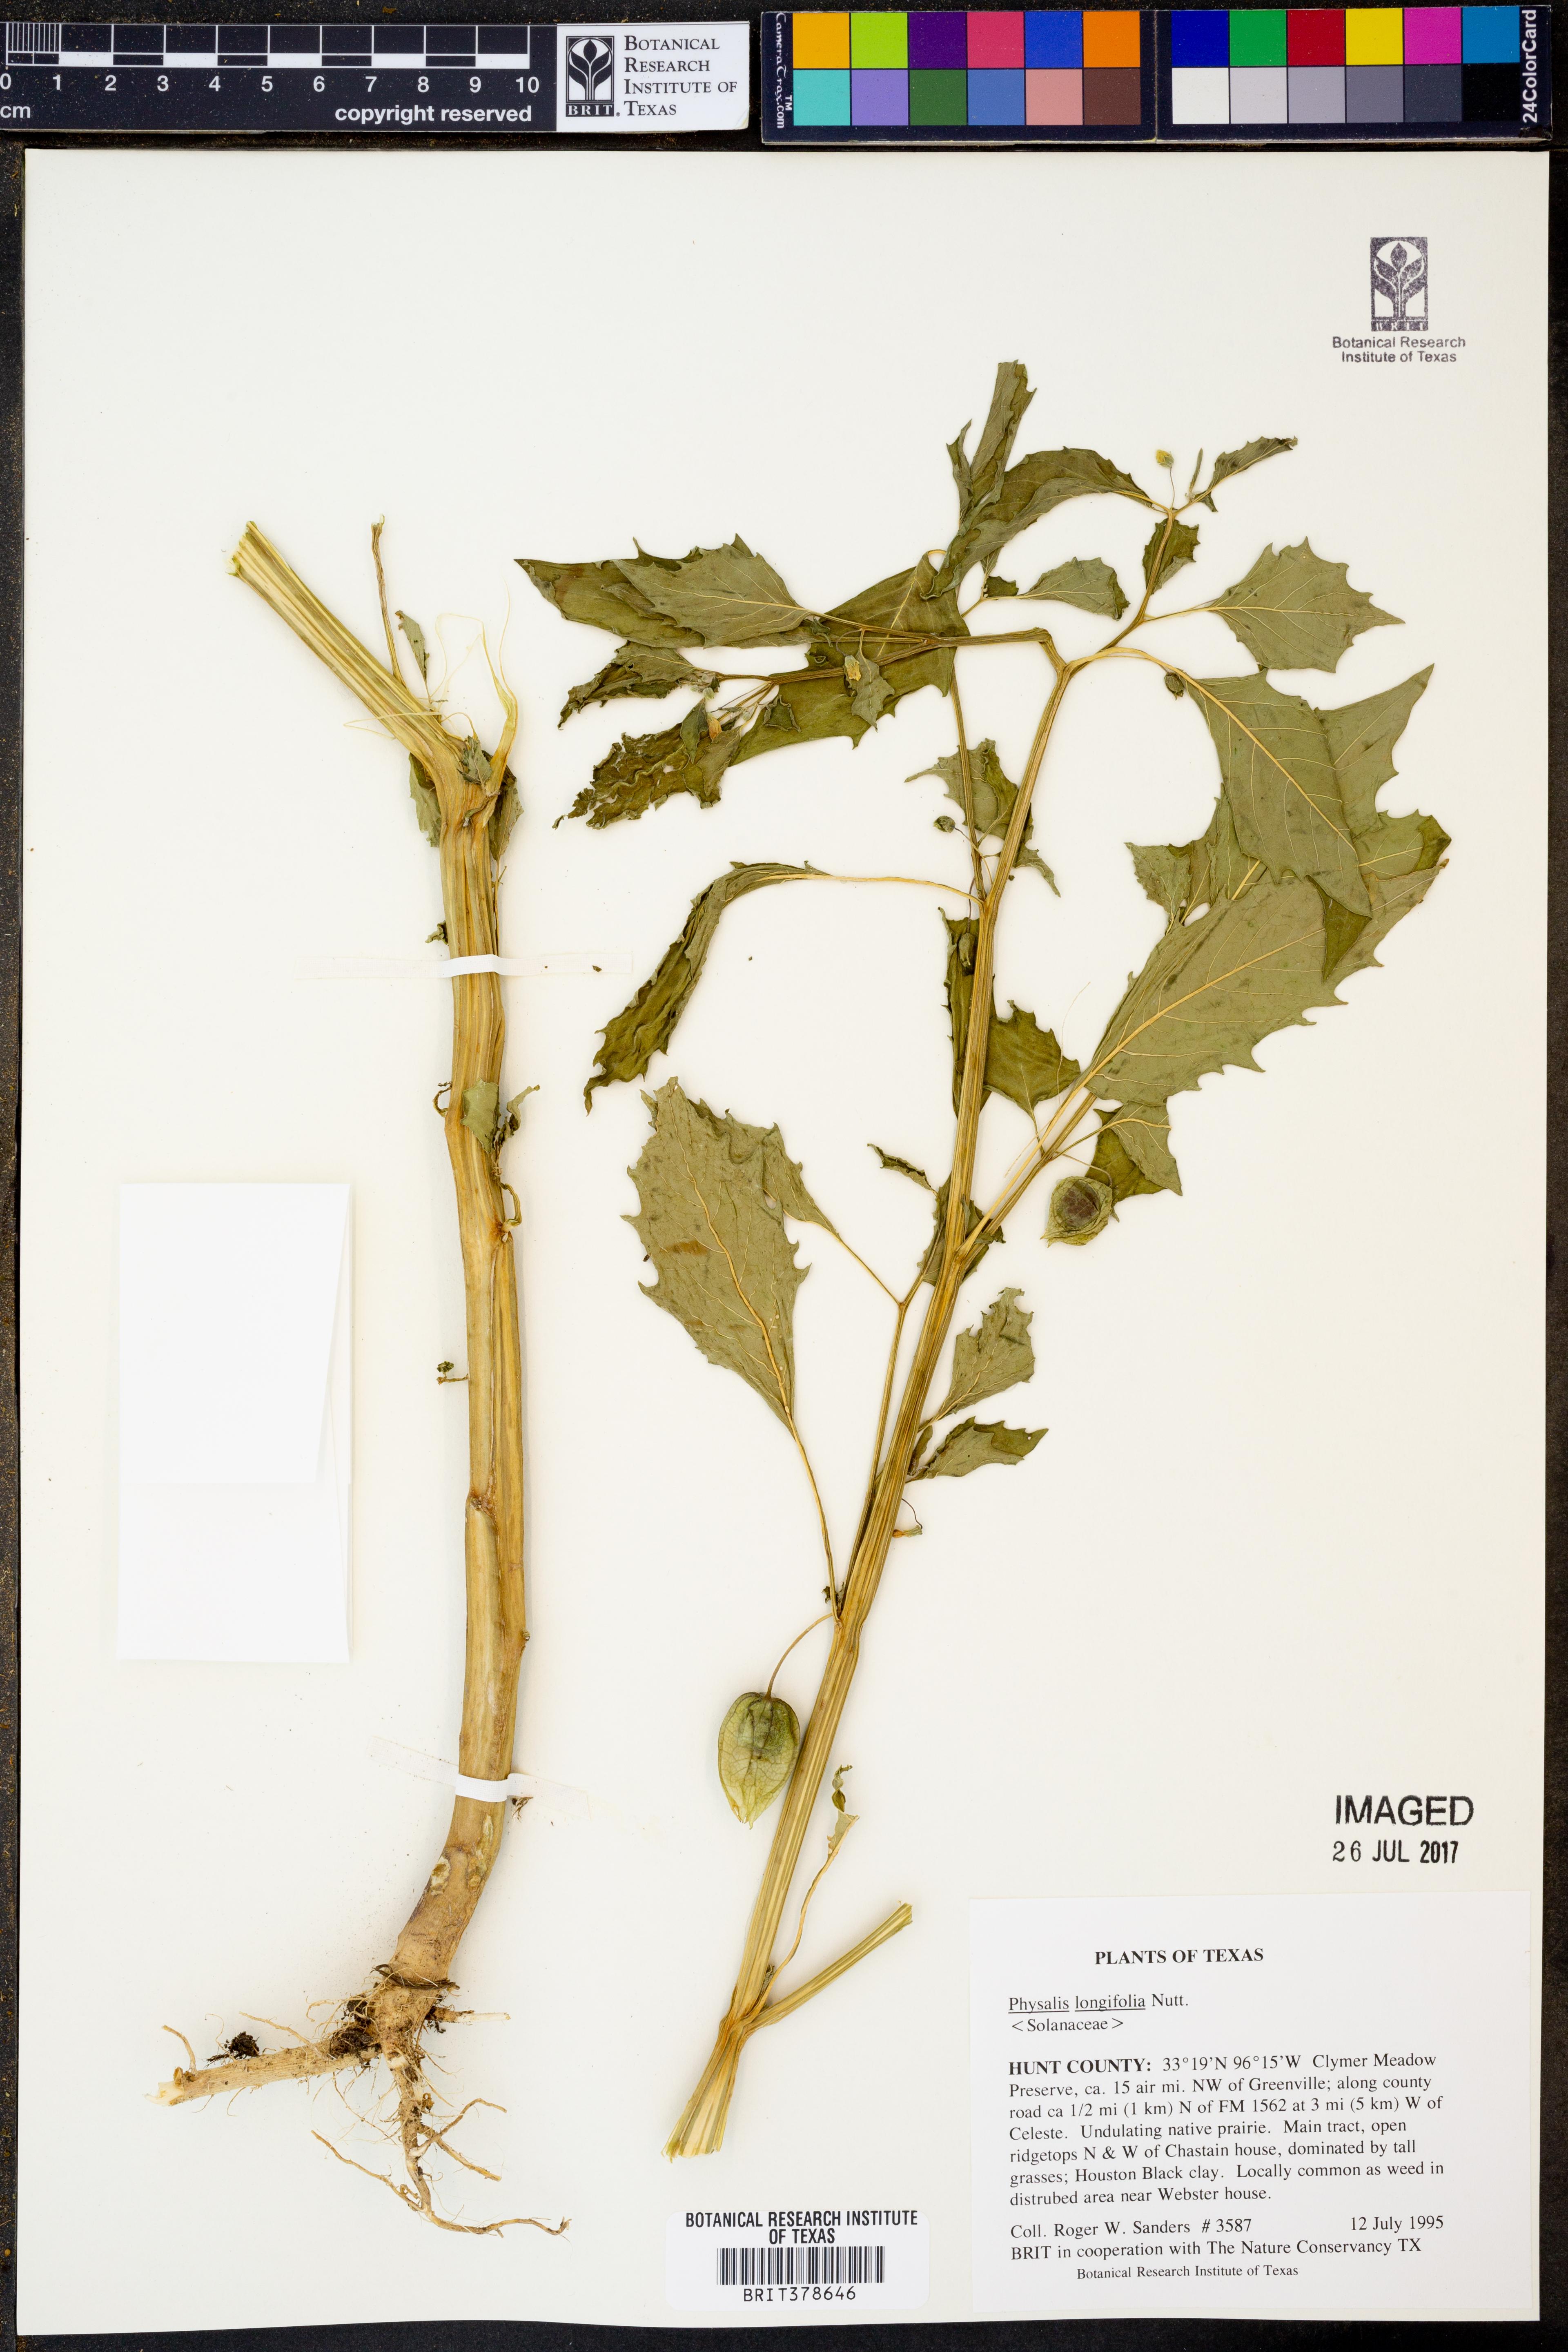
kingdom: Plantae
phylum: Tracheophyta
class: Magnoliopsida
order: Solanales
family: Solanaceae
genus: Physalis
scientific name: Physalis longifolia
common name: Common ground-cherry
